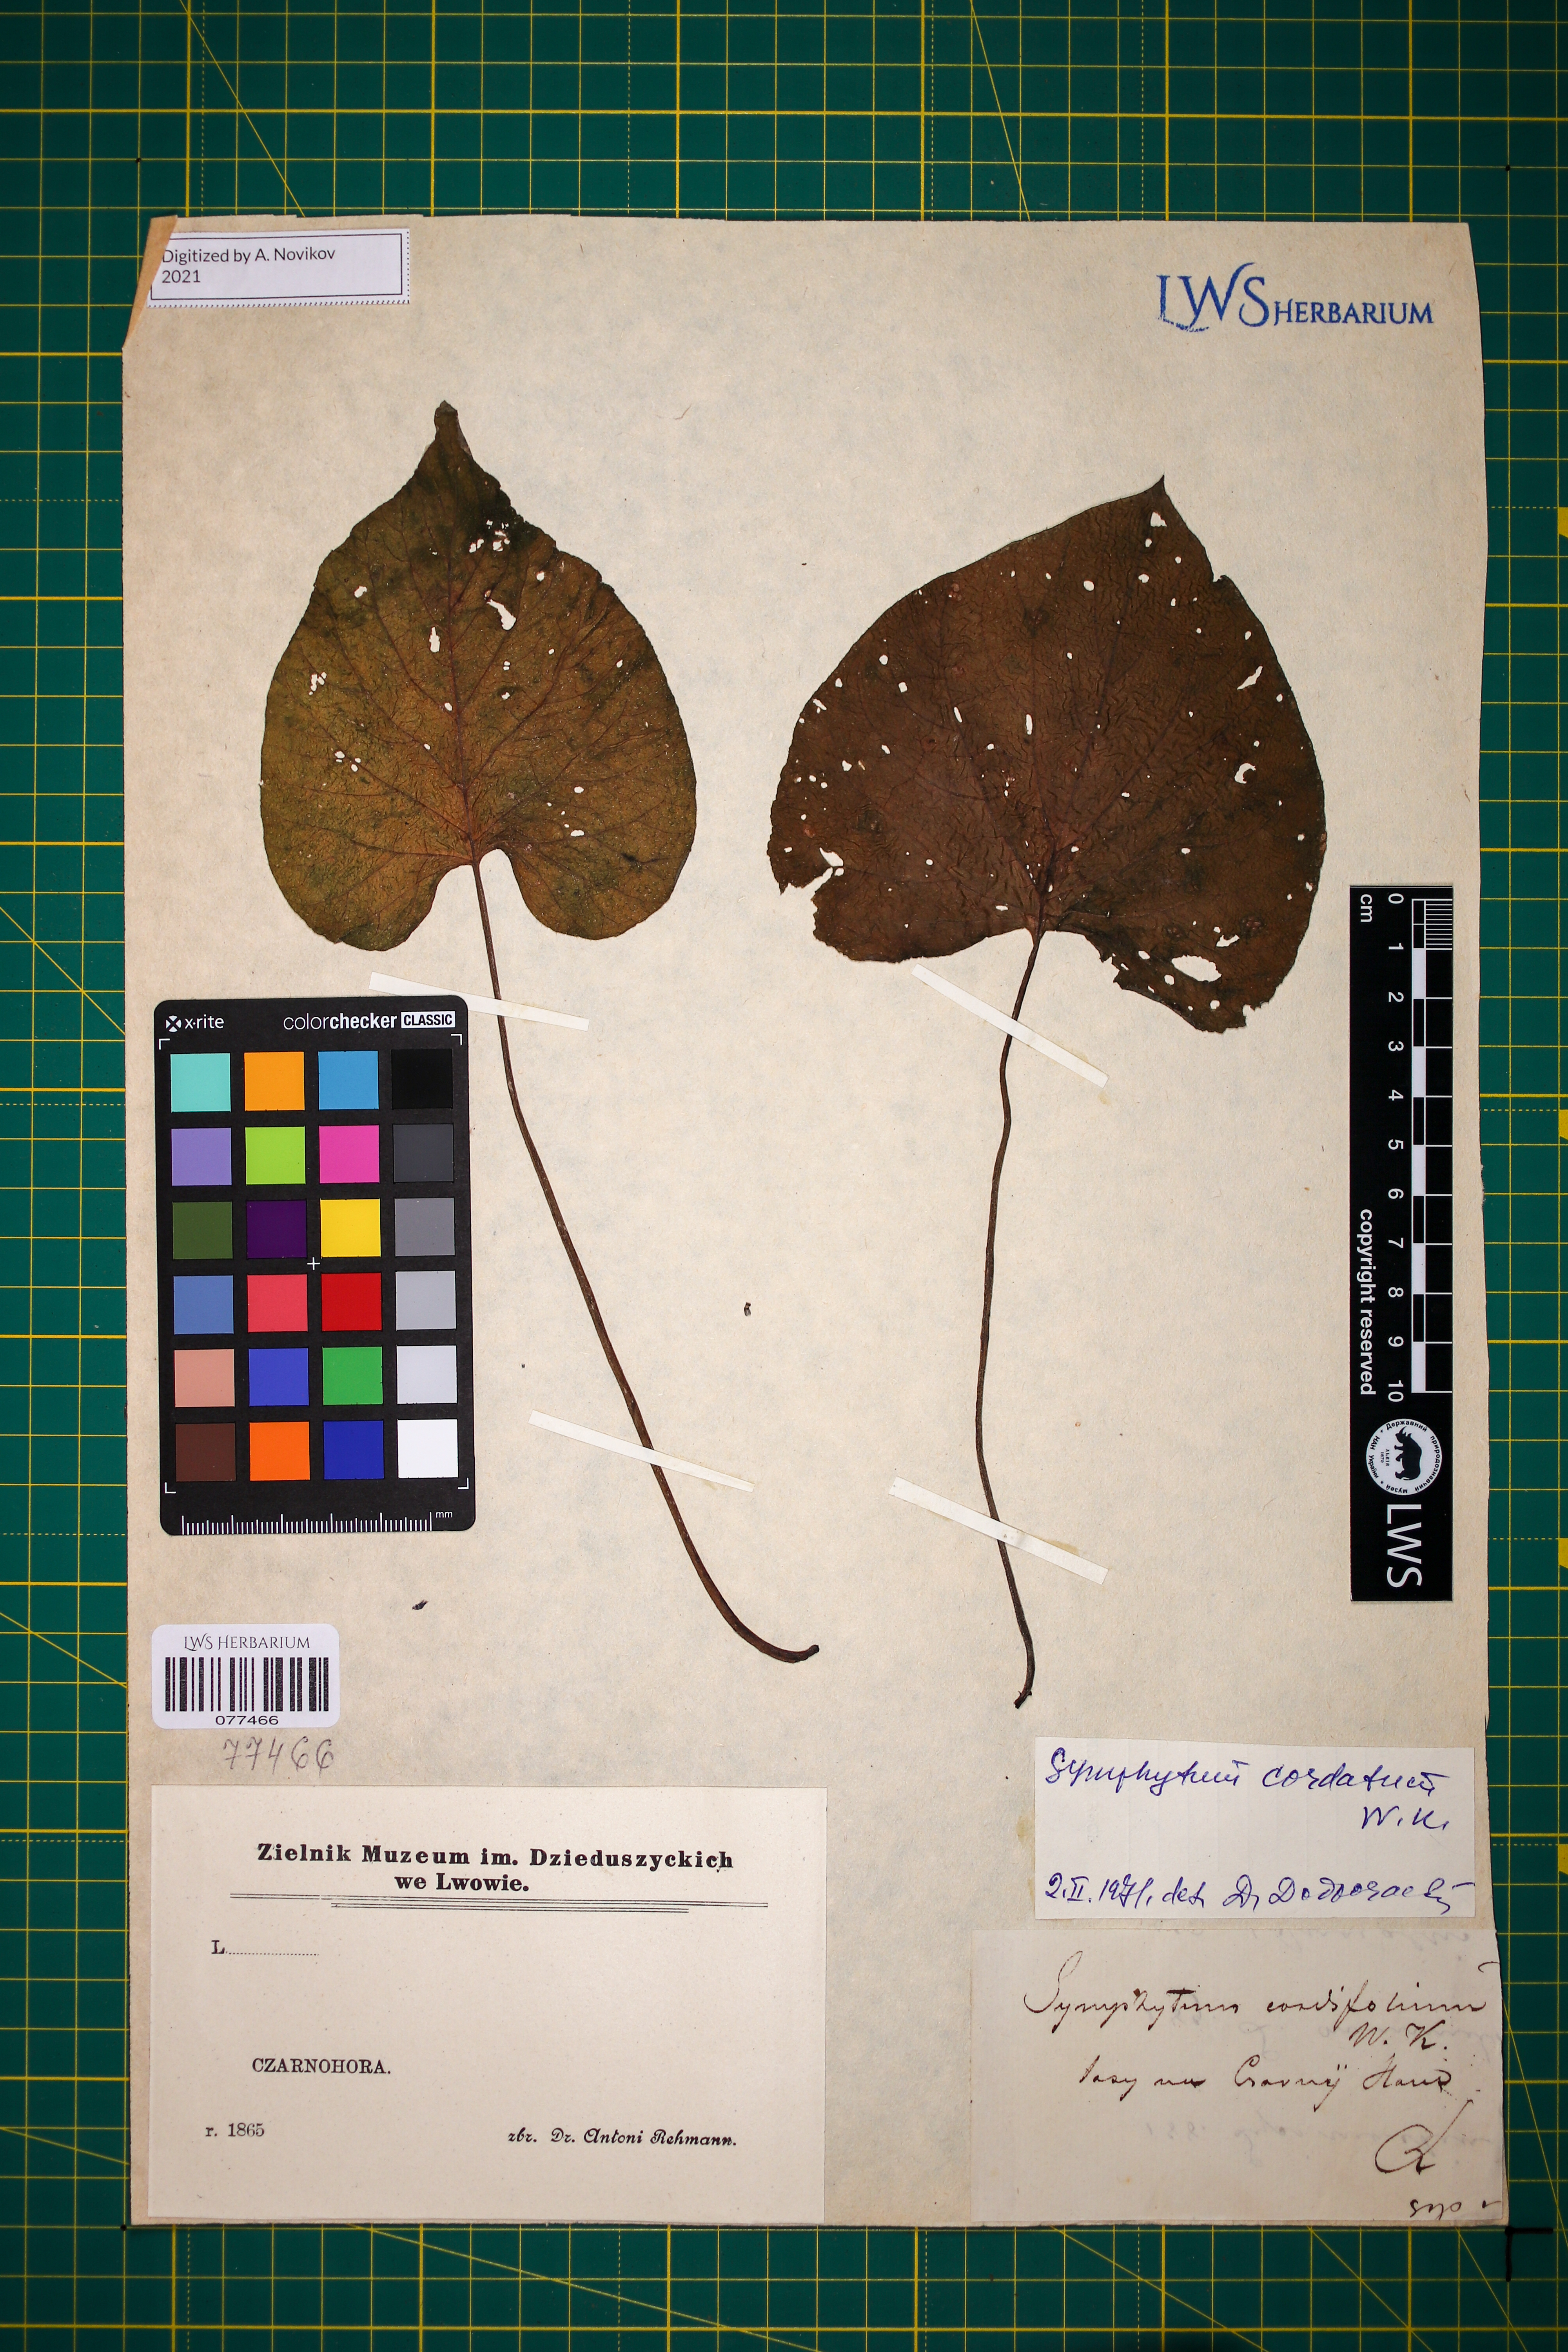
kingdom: Plantae
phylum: Tracheophyta
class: Magnoliopsida
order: Boraginales
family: Boraginaceae
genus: Symphytum
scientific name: Symphytum cordatum
